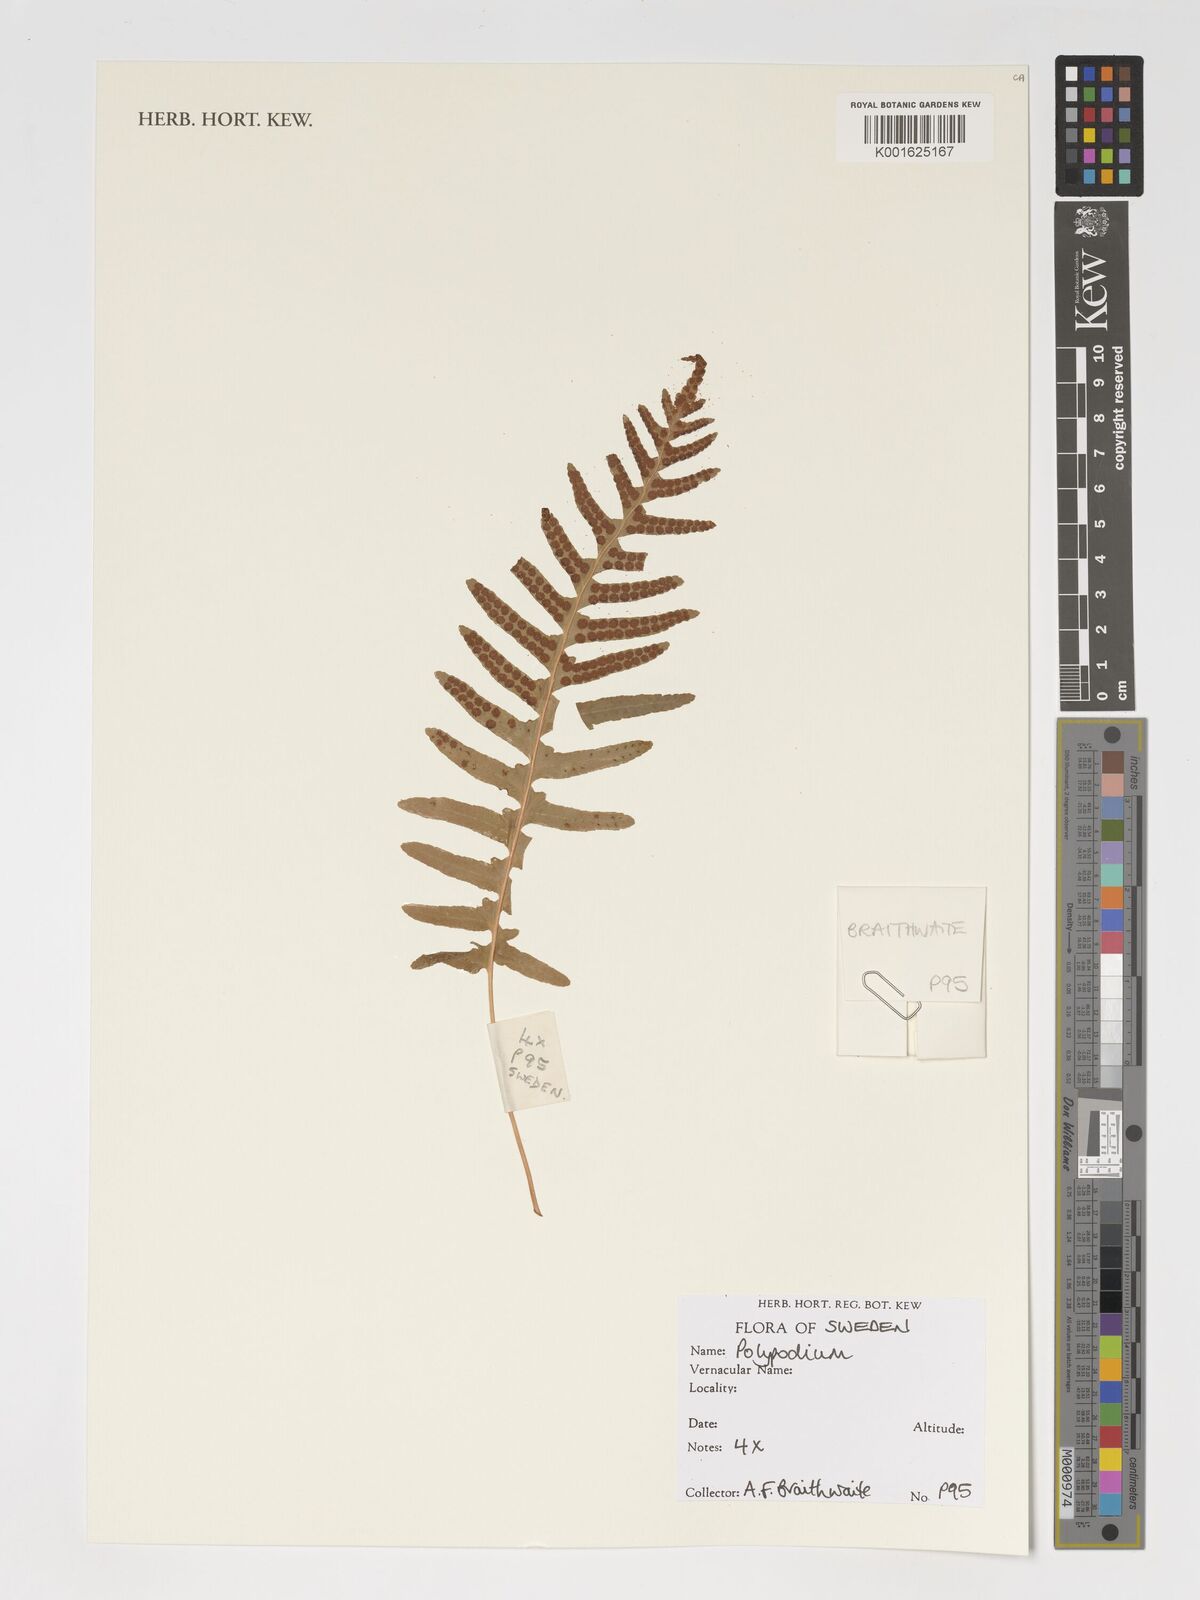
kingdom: Plantae
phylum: Tracheophyta
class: Polypodiopsida
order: Polypodiales
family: Polypodiaceae
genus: Polypodium
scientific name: Polypodium
